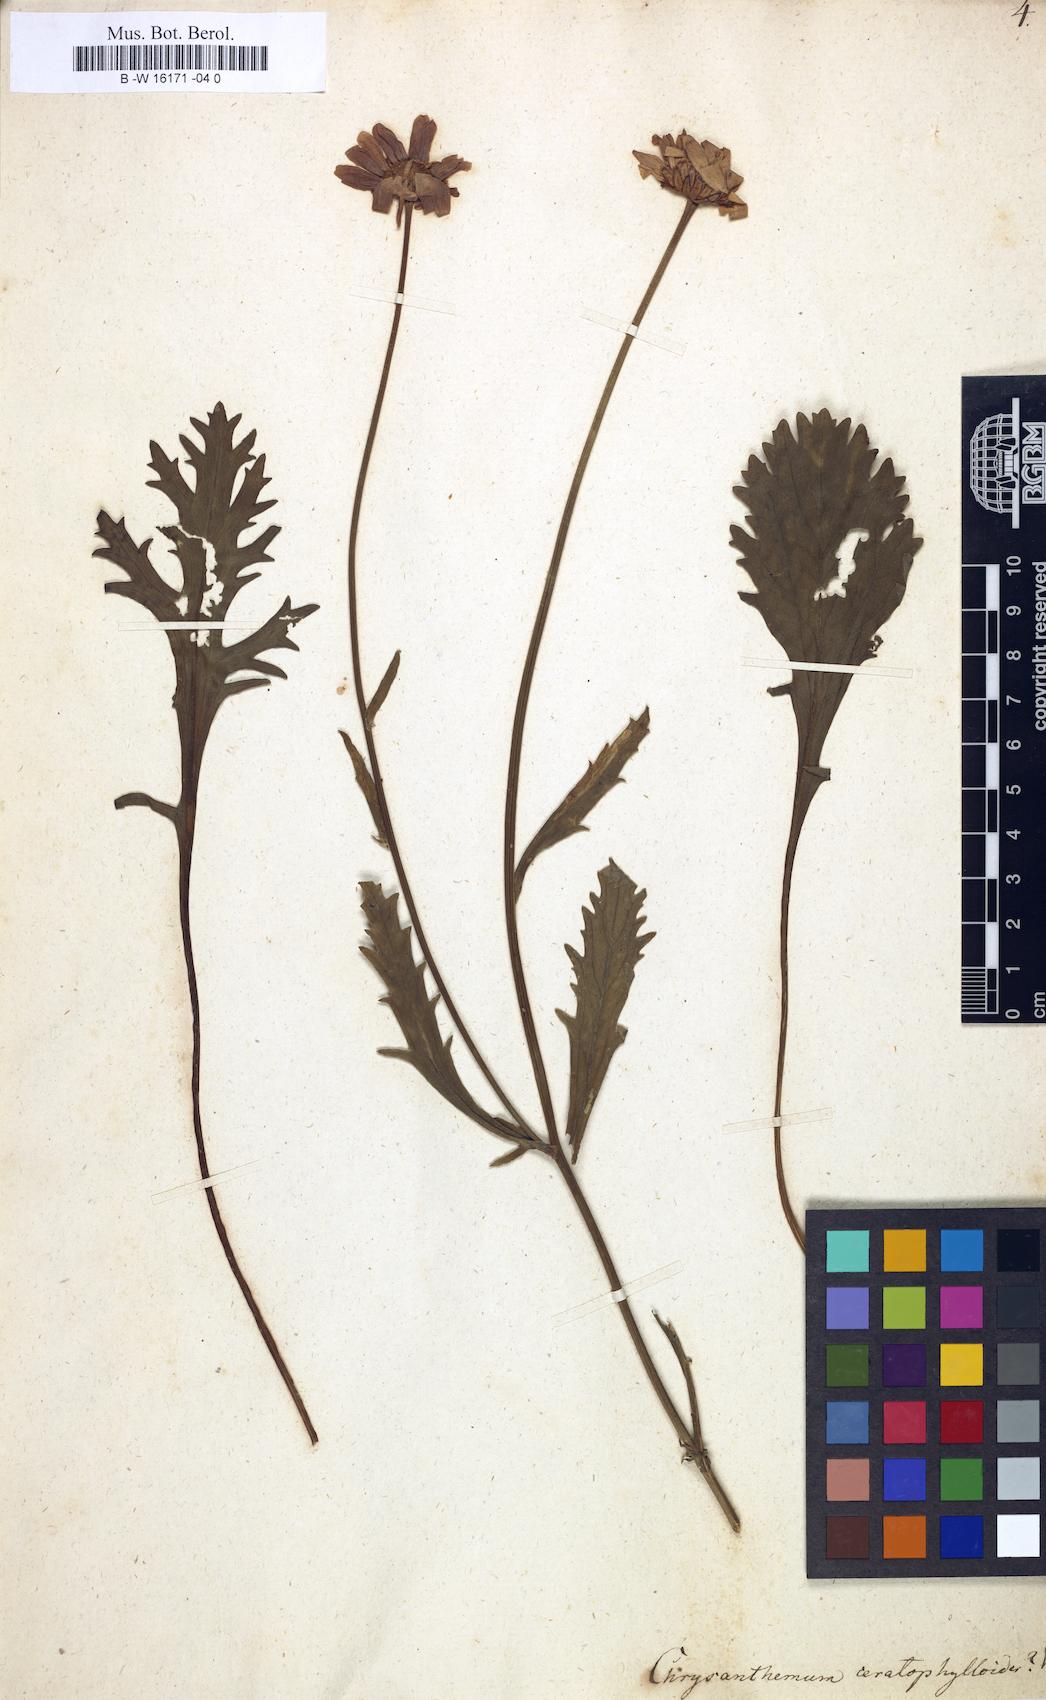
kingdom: Plantae
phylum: Tracheophyta
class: Magnoliopsida
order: Asterales
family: Asteraceae
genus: Leucanthemum
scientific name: Leucanthemum coronopifolium
